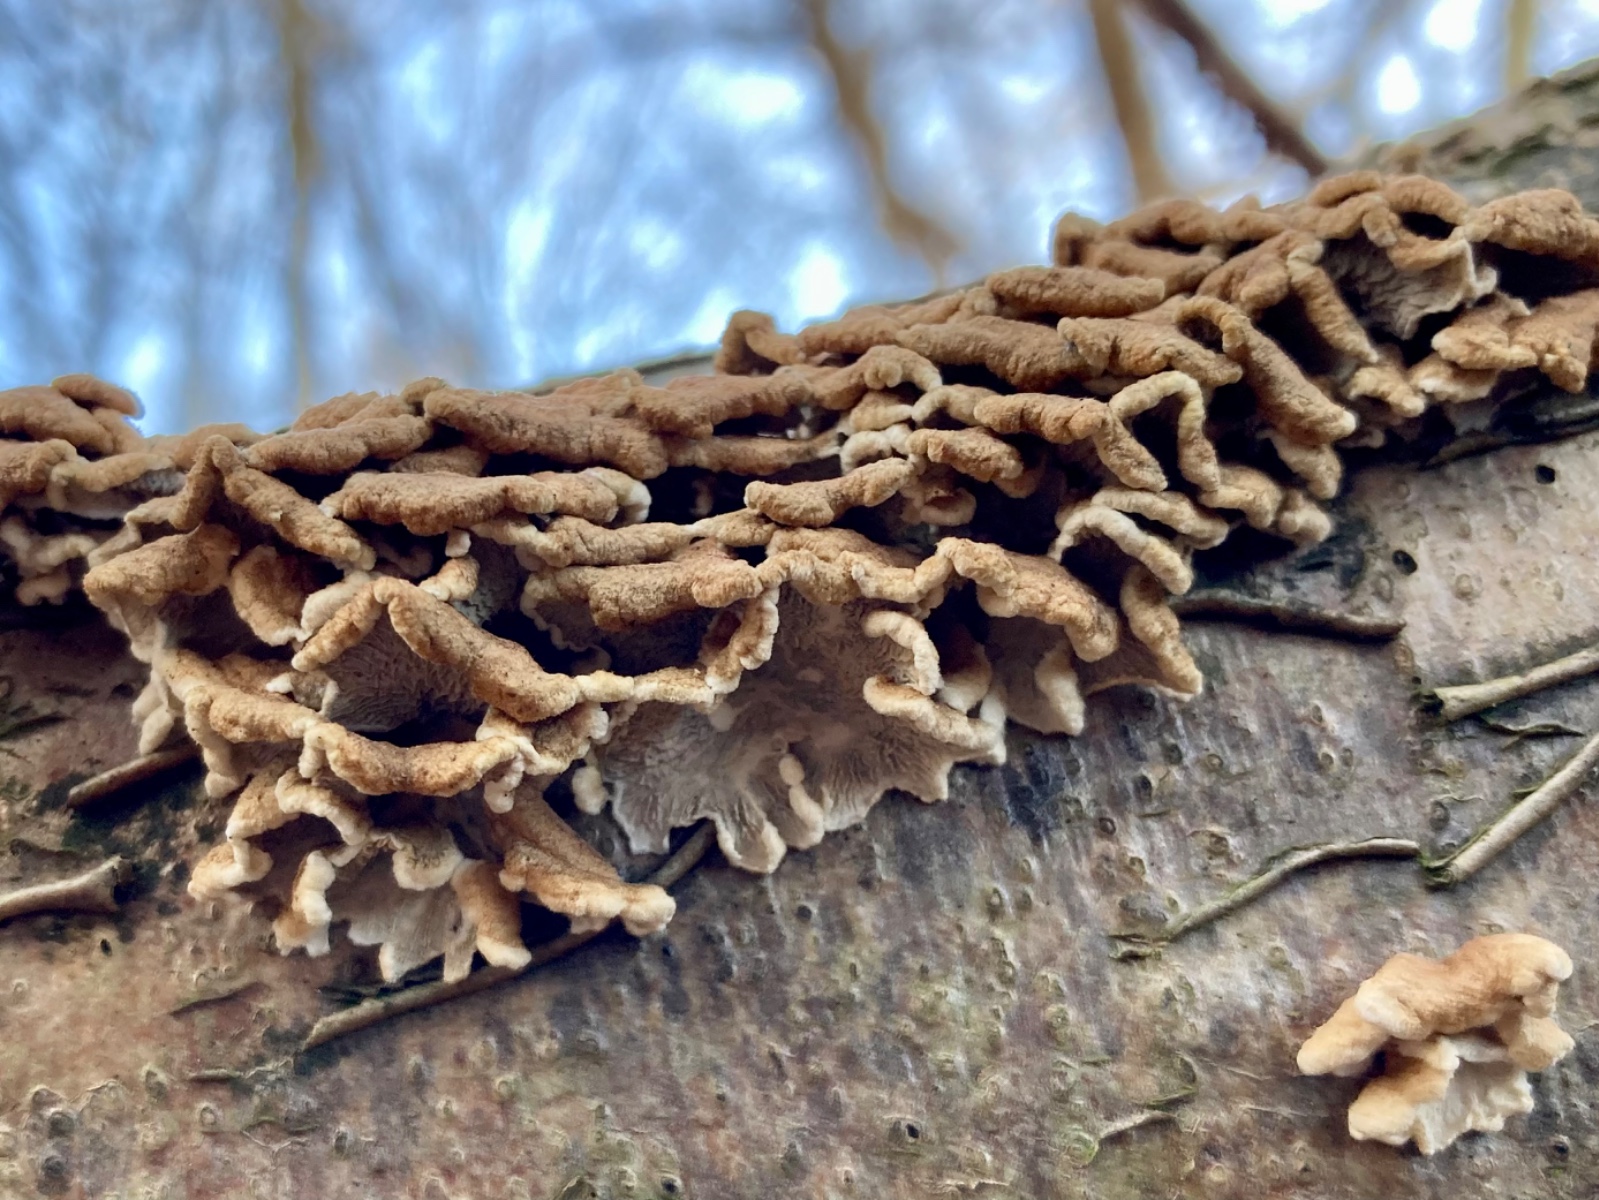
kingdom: Fungi
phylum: Basidiomycota
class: Agaricomycetes
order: Amylocorticiales
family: Amylocorticiaceae
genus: Plicaturopsis
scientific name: Plicaturopsis crispa
